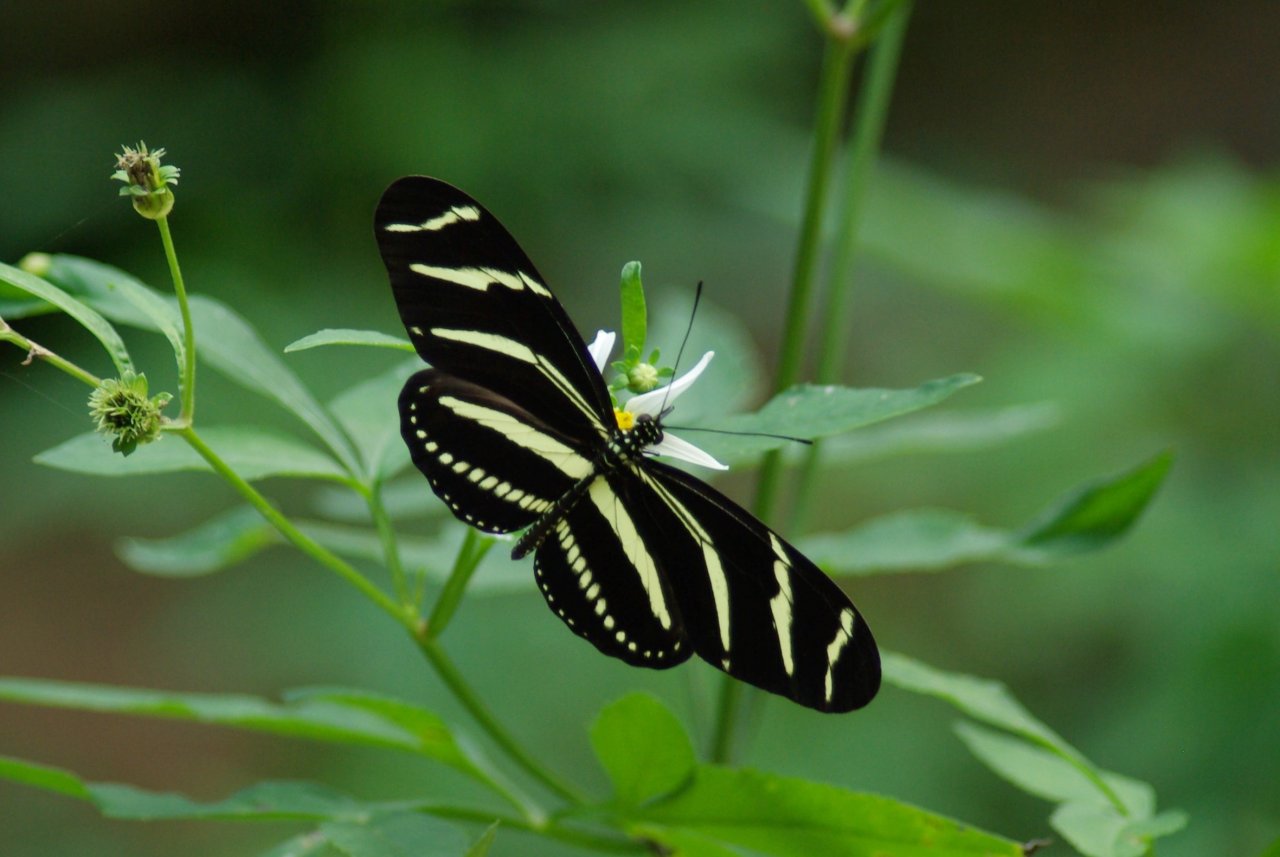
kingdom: Animalia
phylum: Arthropoda
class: Insecta
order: Lepidoptera
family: Nymphalidae
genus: Heliconius
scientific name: Heliconius charithonia
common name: Zebra Longwing
